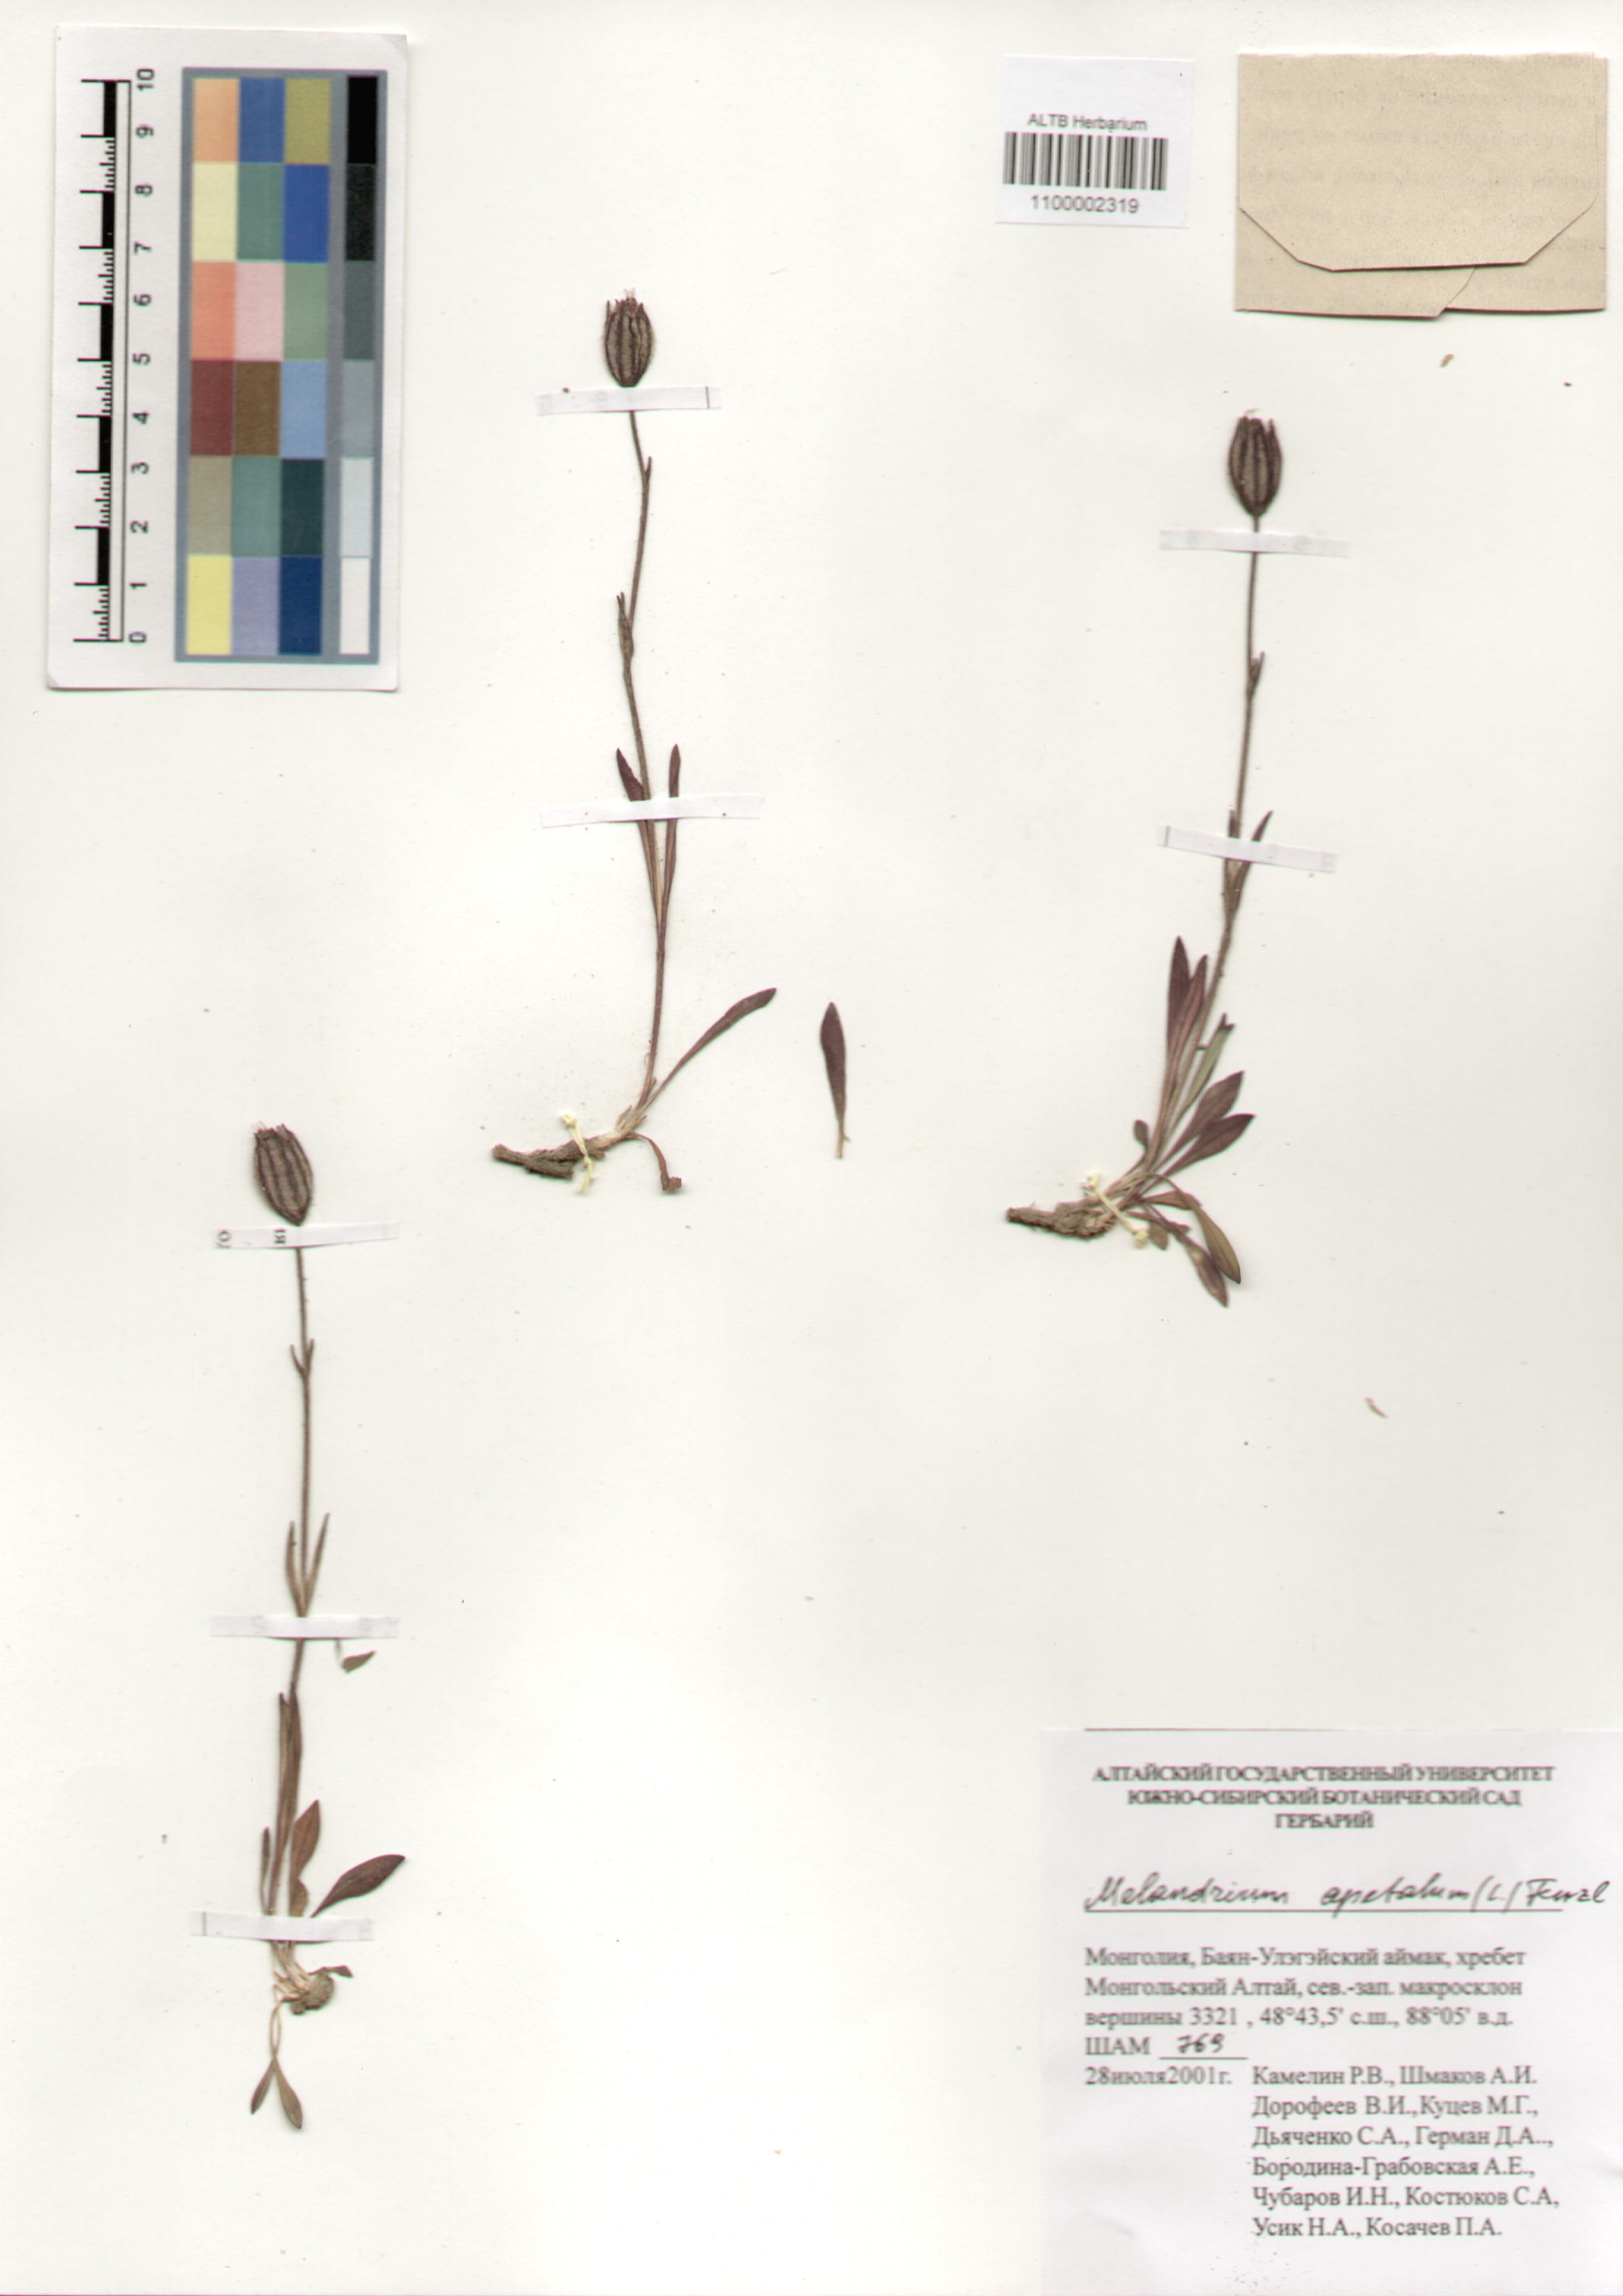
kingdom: Plantae
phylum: Tracheophyta
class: Magnoliopsida
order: Caryophyllales
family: Caryophyllaceae
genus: Silene
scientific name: Silene wahlbergella
